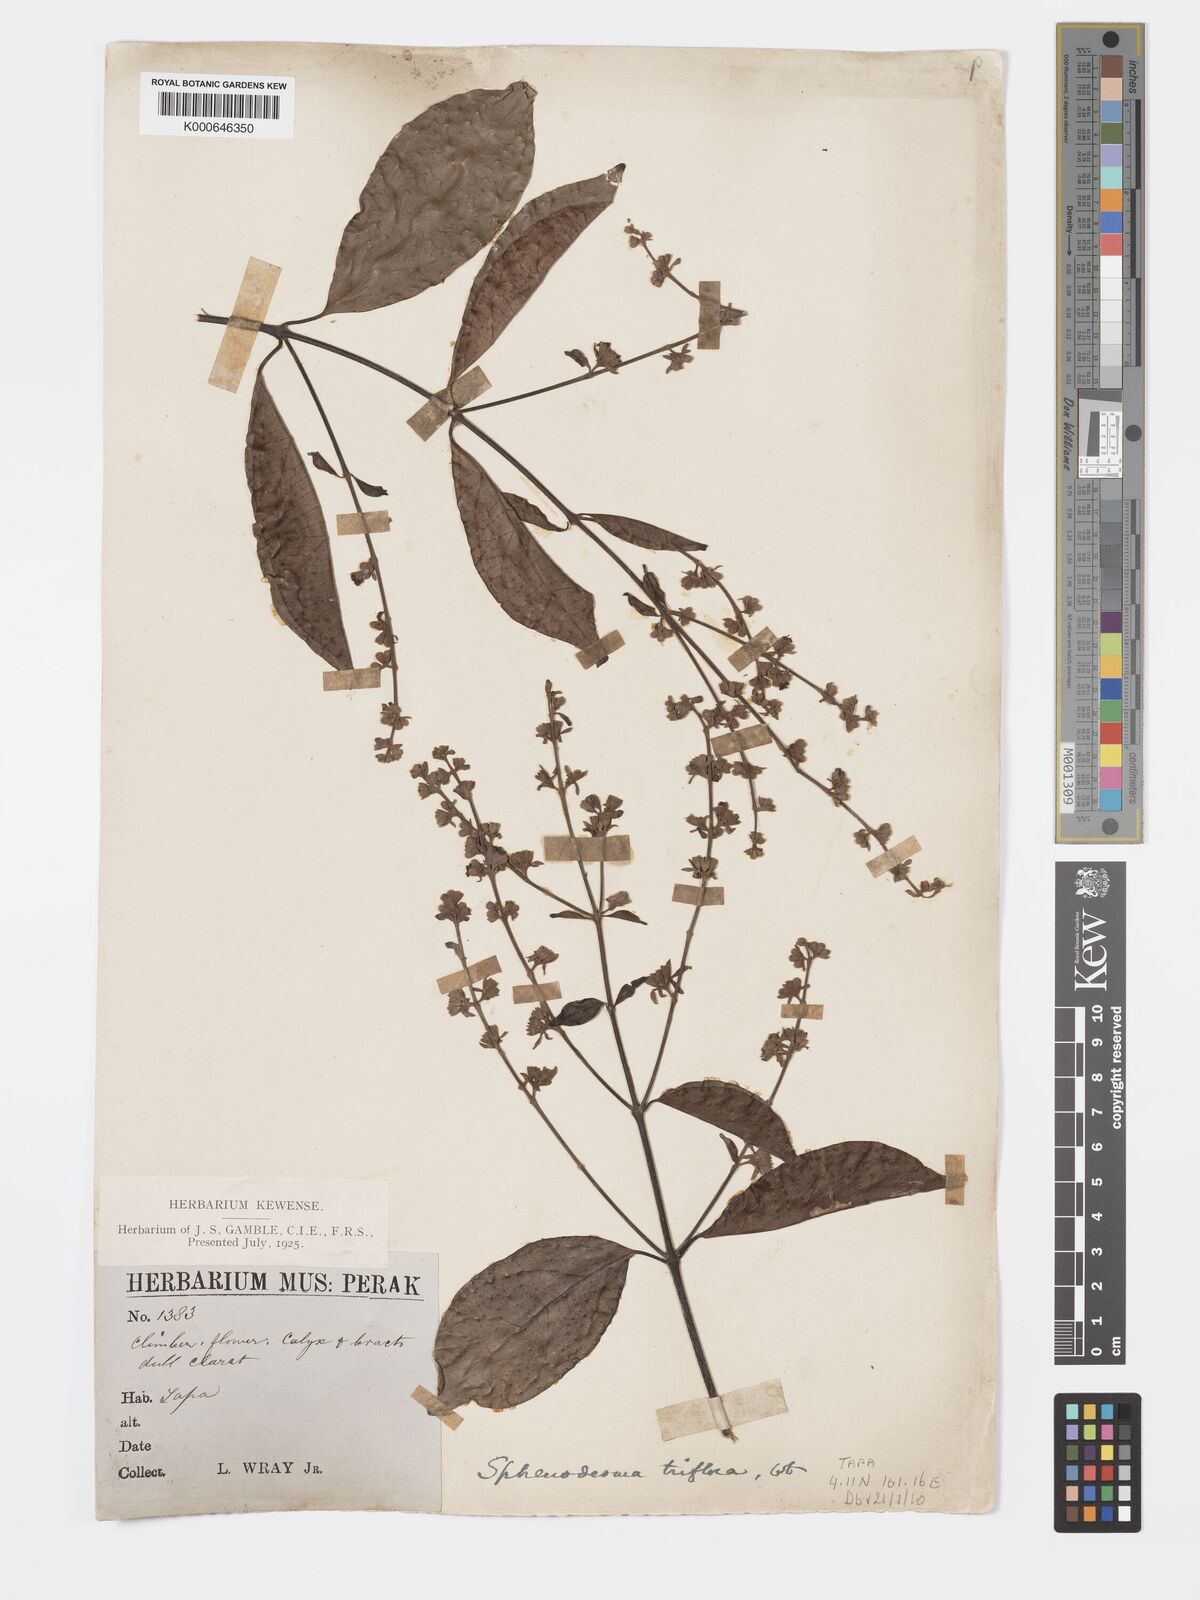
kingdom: Plantae
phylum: Tracheophyta
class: Magnoliopsida
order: Lamiales
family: Lamiaceae
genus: Sphenodesme
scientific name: Sphenodesme
